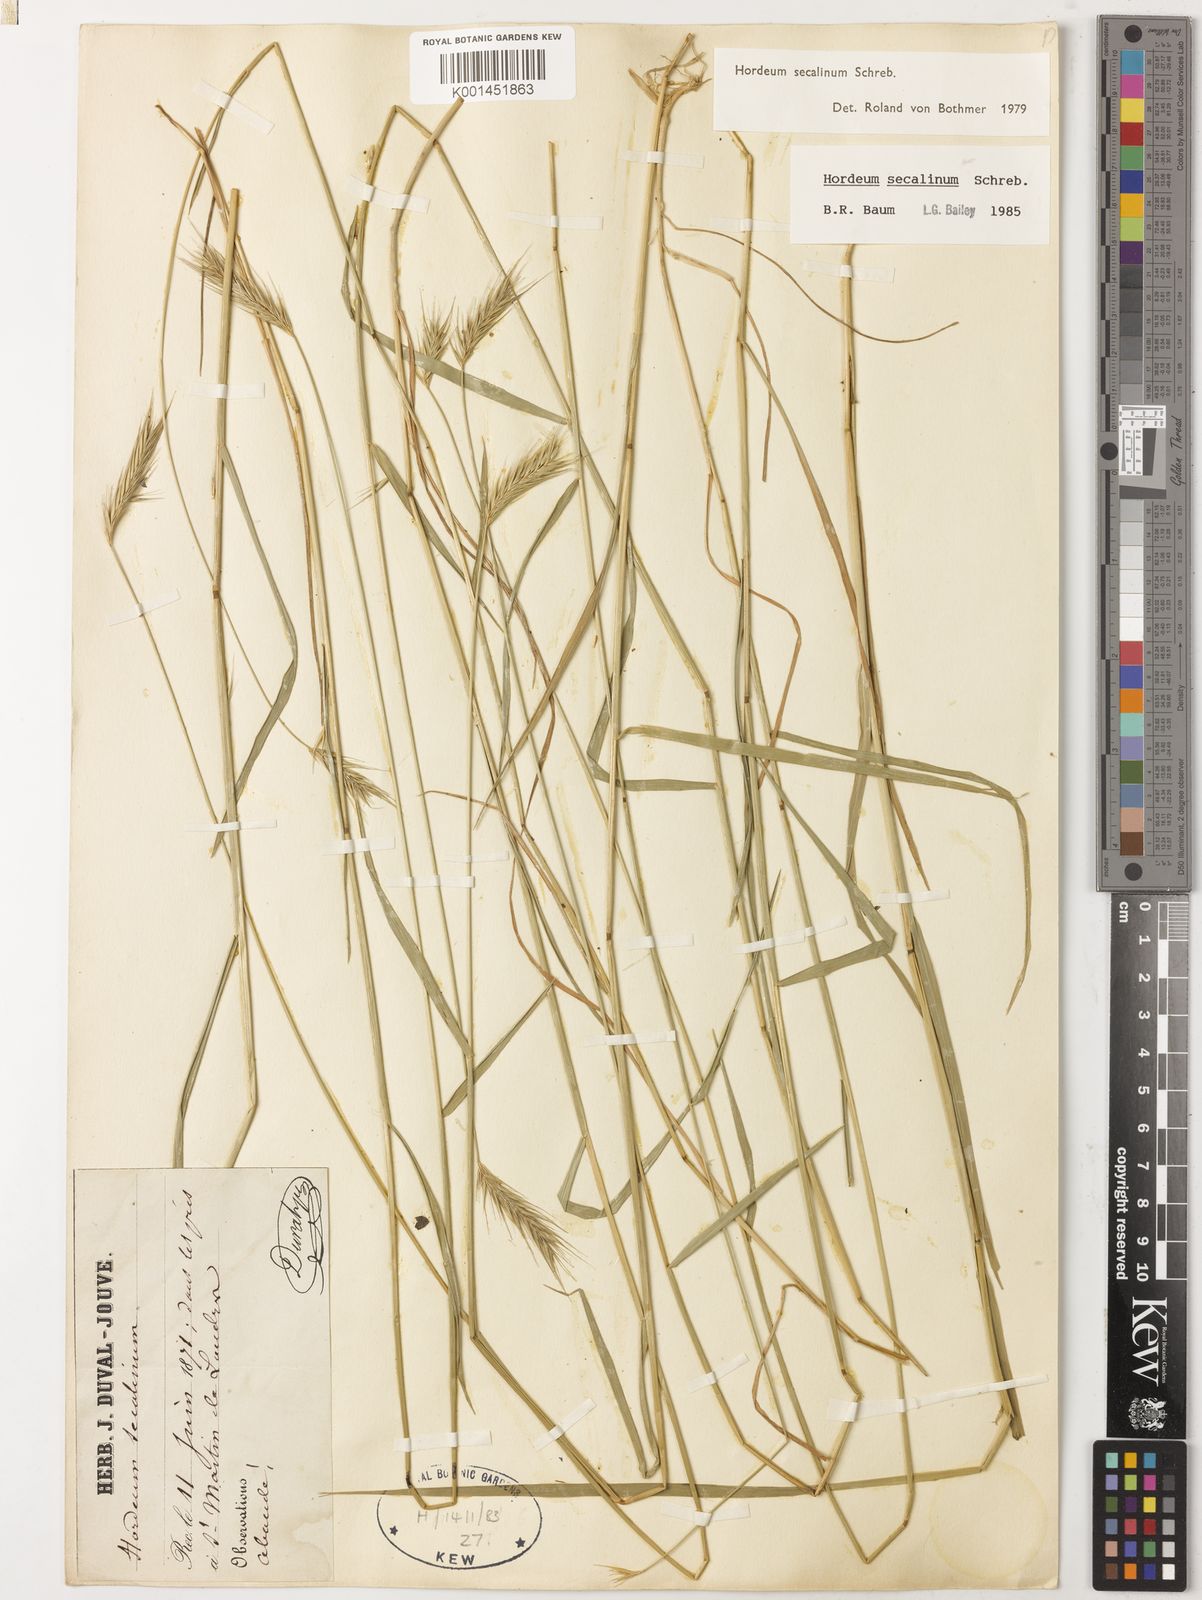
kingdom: Plantae
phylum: Tracheophyta
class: Liliopsida
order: Poales
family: Poaceae
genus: Hordeum
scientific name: Hordeum secalinum
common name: Meadow barley
